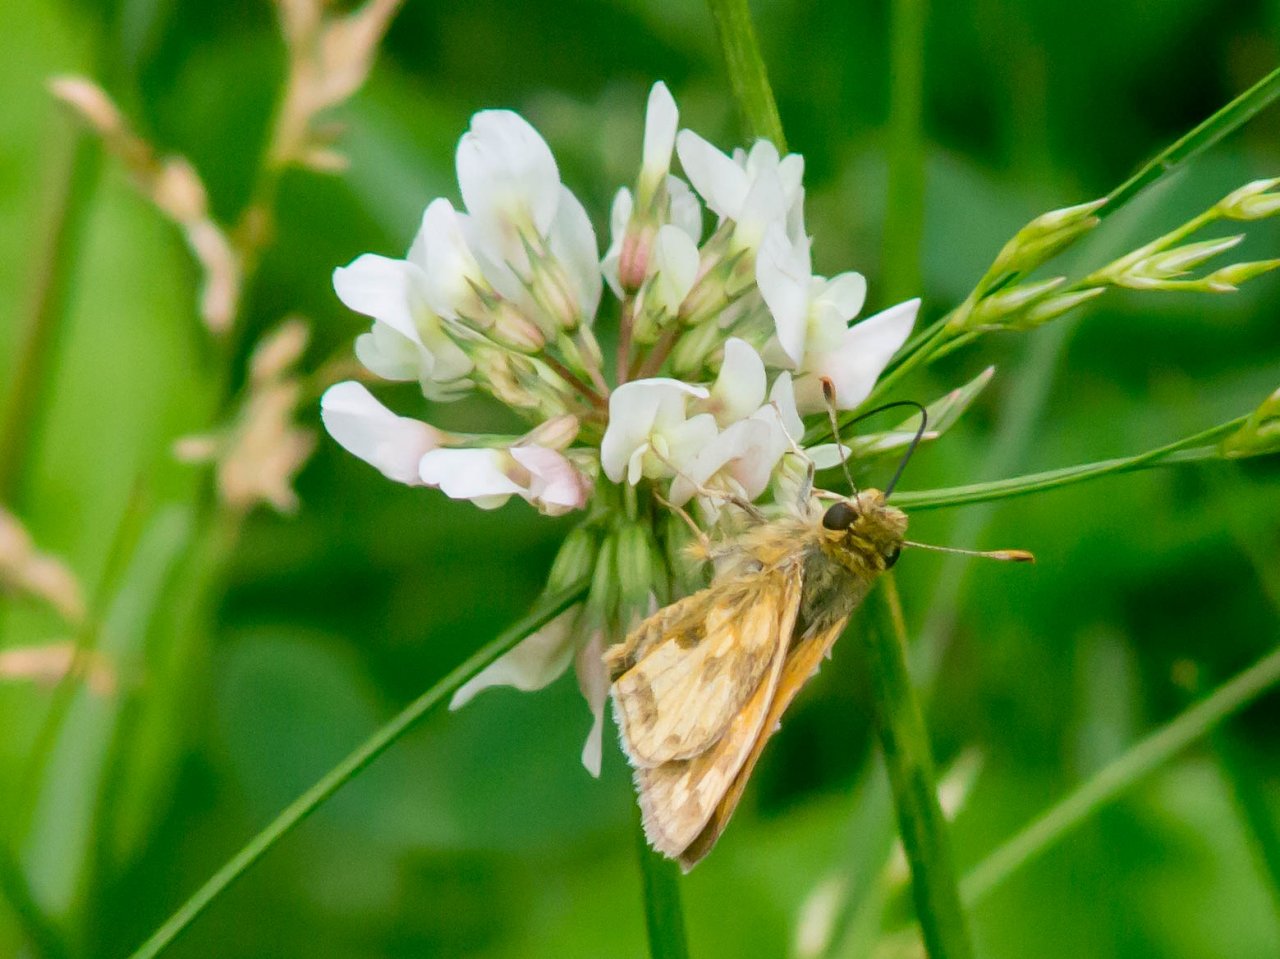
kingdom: Animalia
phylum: Arthropoda
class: Insecta
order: Lepidoptera
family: Hesperiidae
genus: Polites
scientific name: Polites coras
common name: Peck's Skipper
